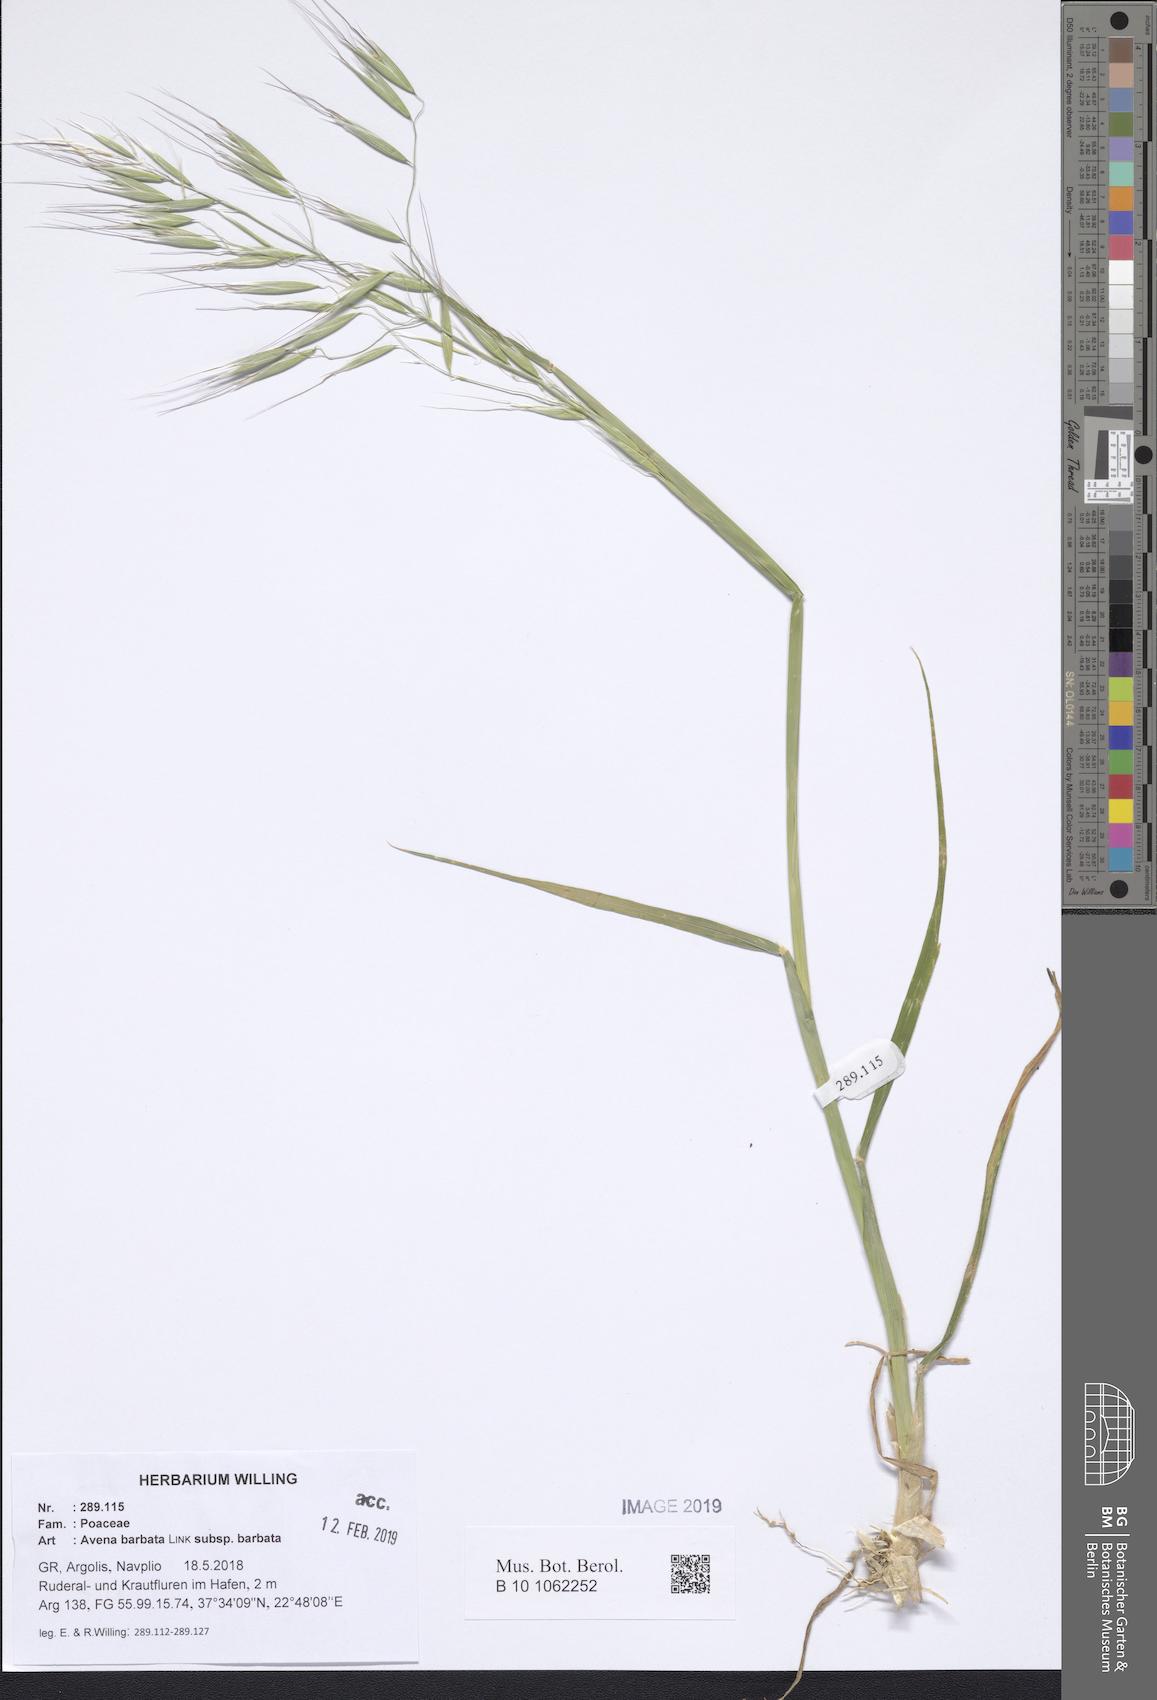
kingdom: Plantae
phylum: Tracheophyta
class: Liliopsida
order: Poales
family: Poaceae
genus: Avena
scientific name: Avena barbata
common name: Slender oat
